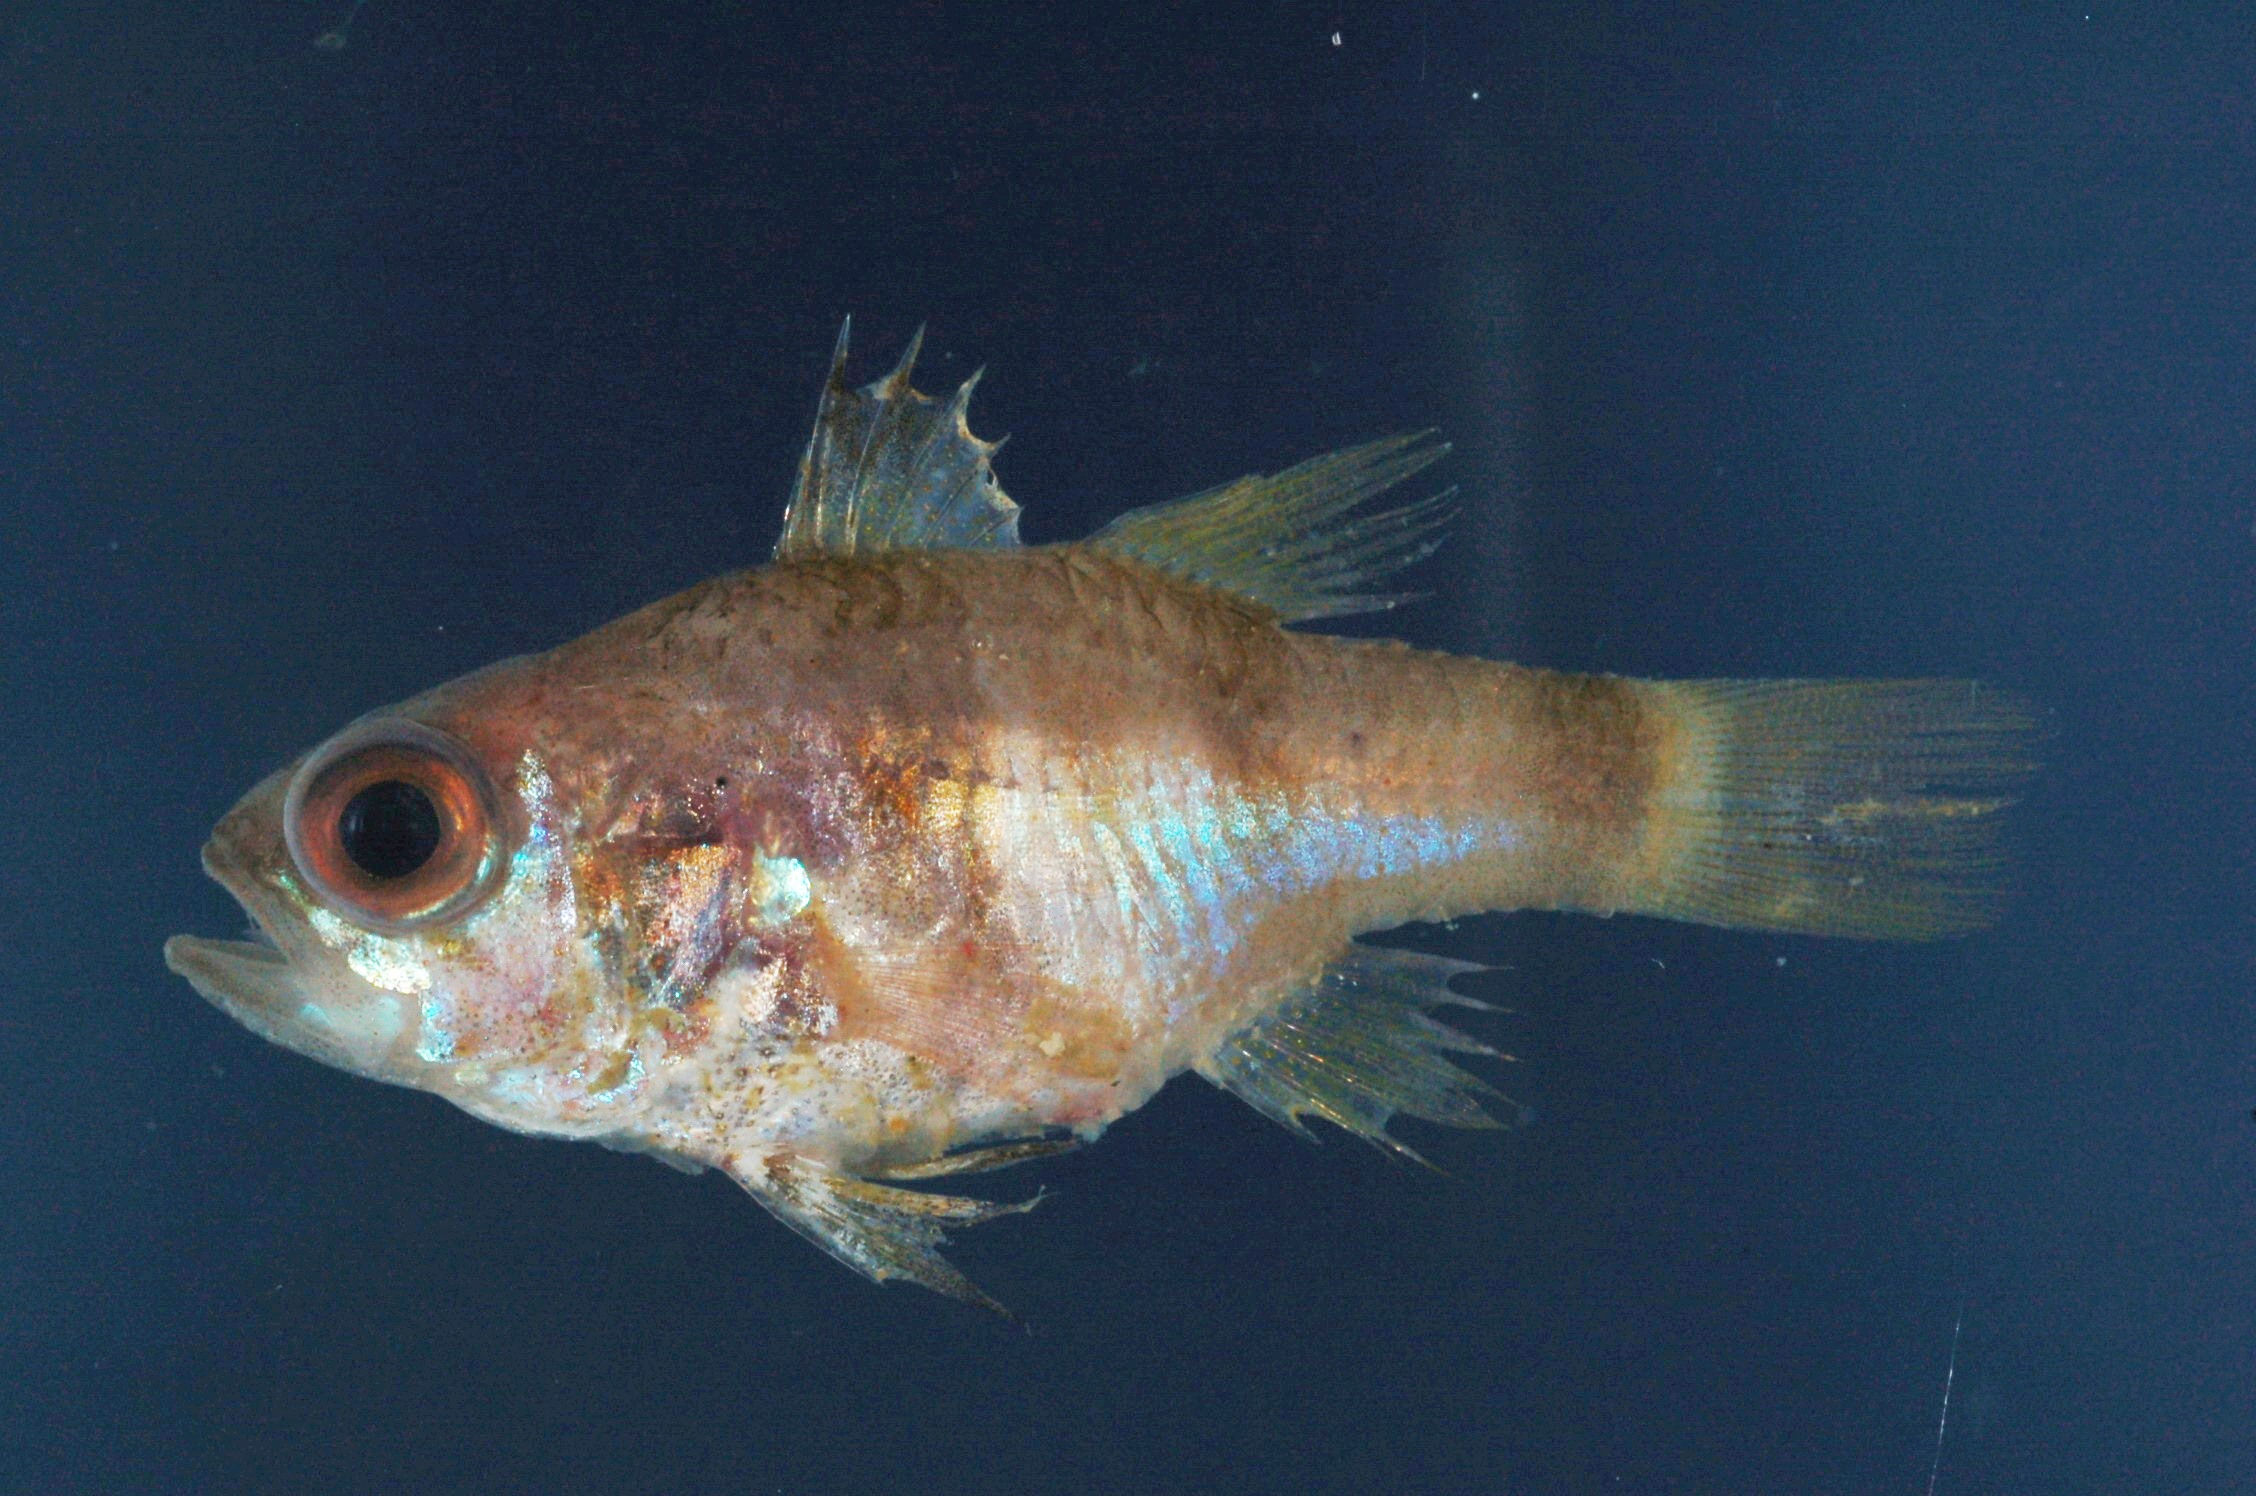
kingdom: Animalia
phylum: Chordata
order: Perciformes
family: Apogonidae
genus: Apogonichthyoides
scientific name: Apogonichthyoides gardineri
